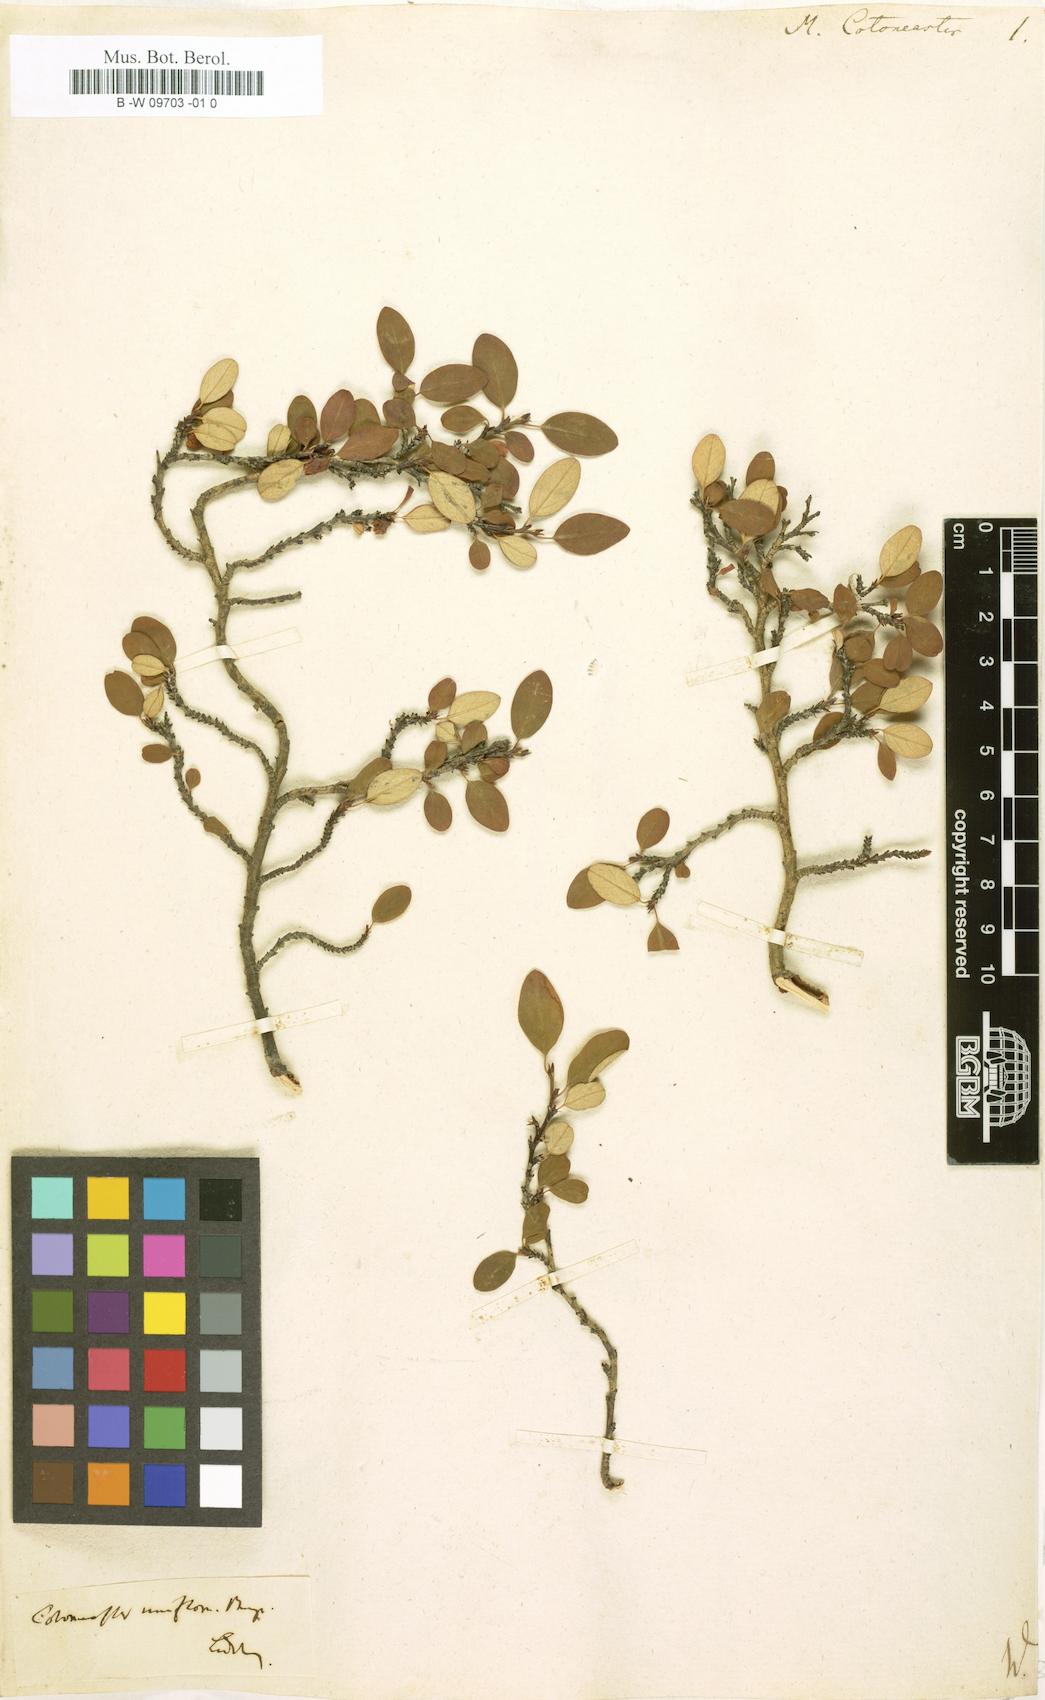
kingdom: Plantae
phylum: Tracheophyta
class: Magnoliopsida
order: Rosales
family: Rosaceae
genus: Cotoneaster
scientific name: Cotoneaster integerrimus
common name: Wild cotoneaster
